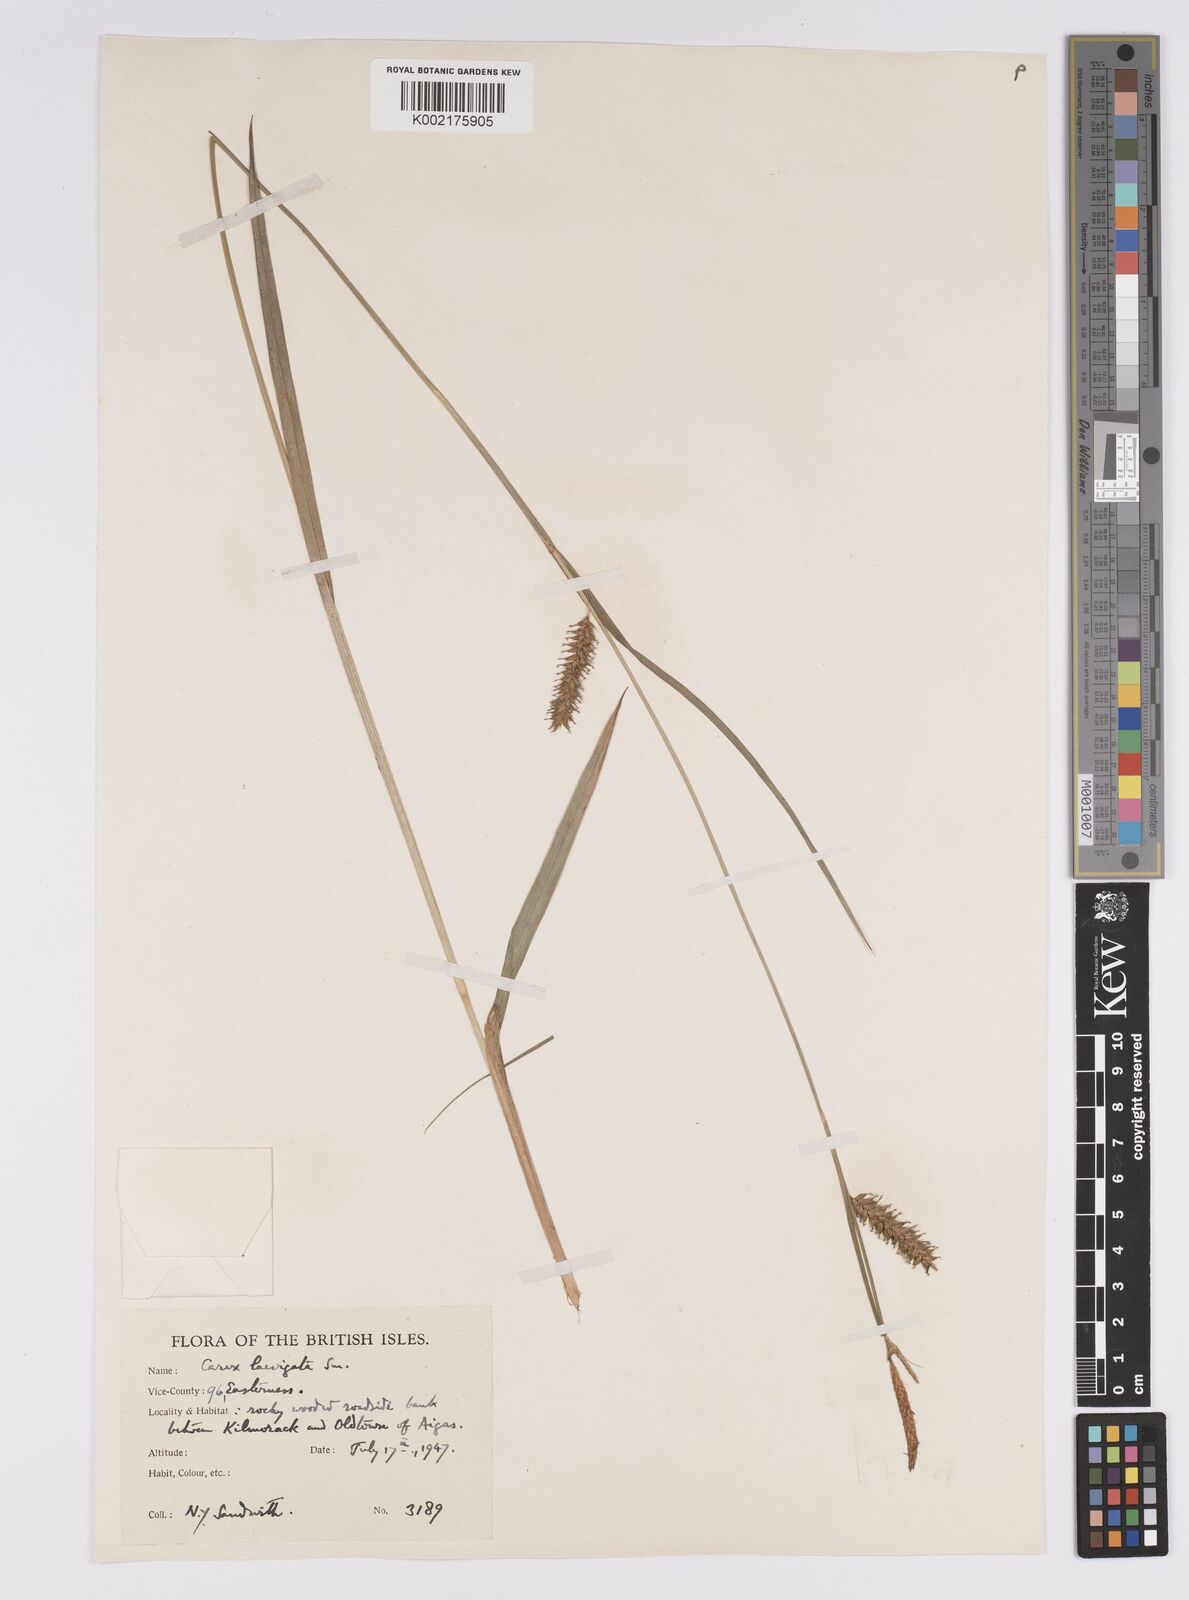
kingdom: Plantae
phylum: Tracheophyta
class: Liliopsida
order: Poales
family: Cyperaceae
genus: Carex
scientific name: Carex laevigata
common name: Smooth-stalked sedge
